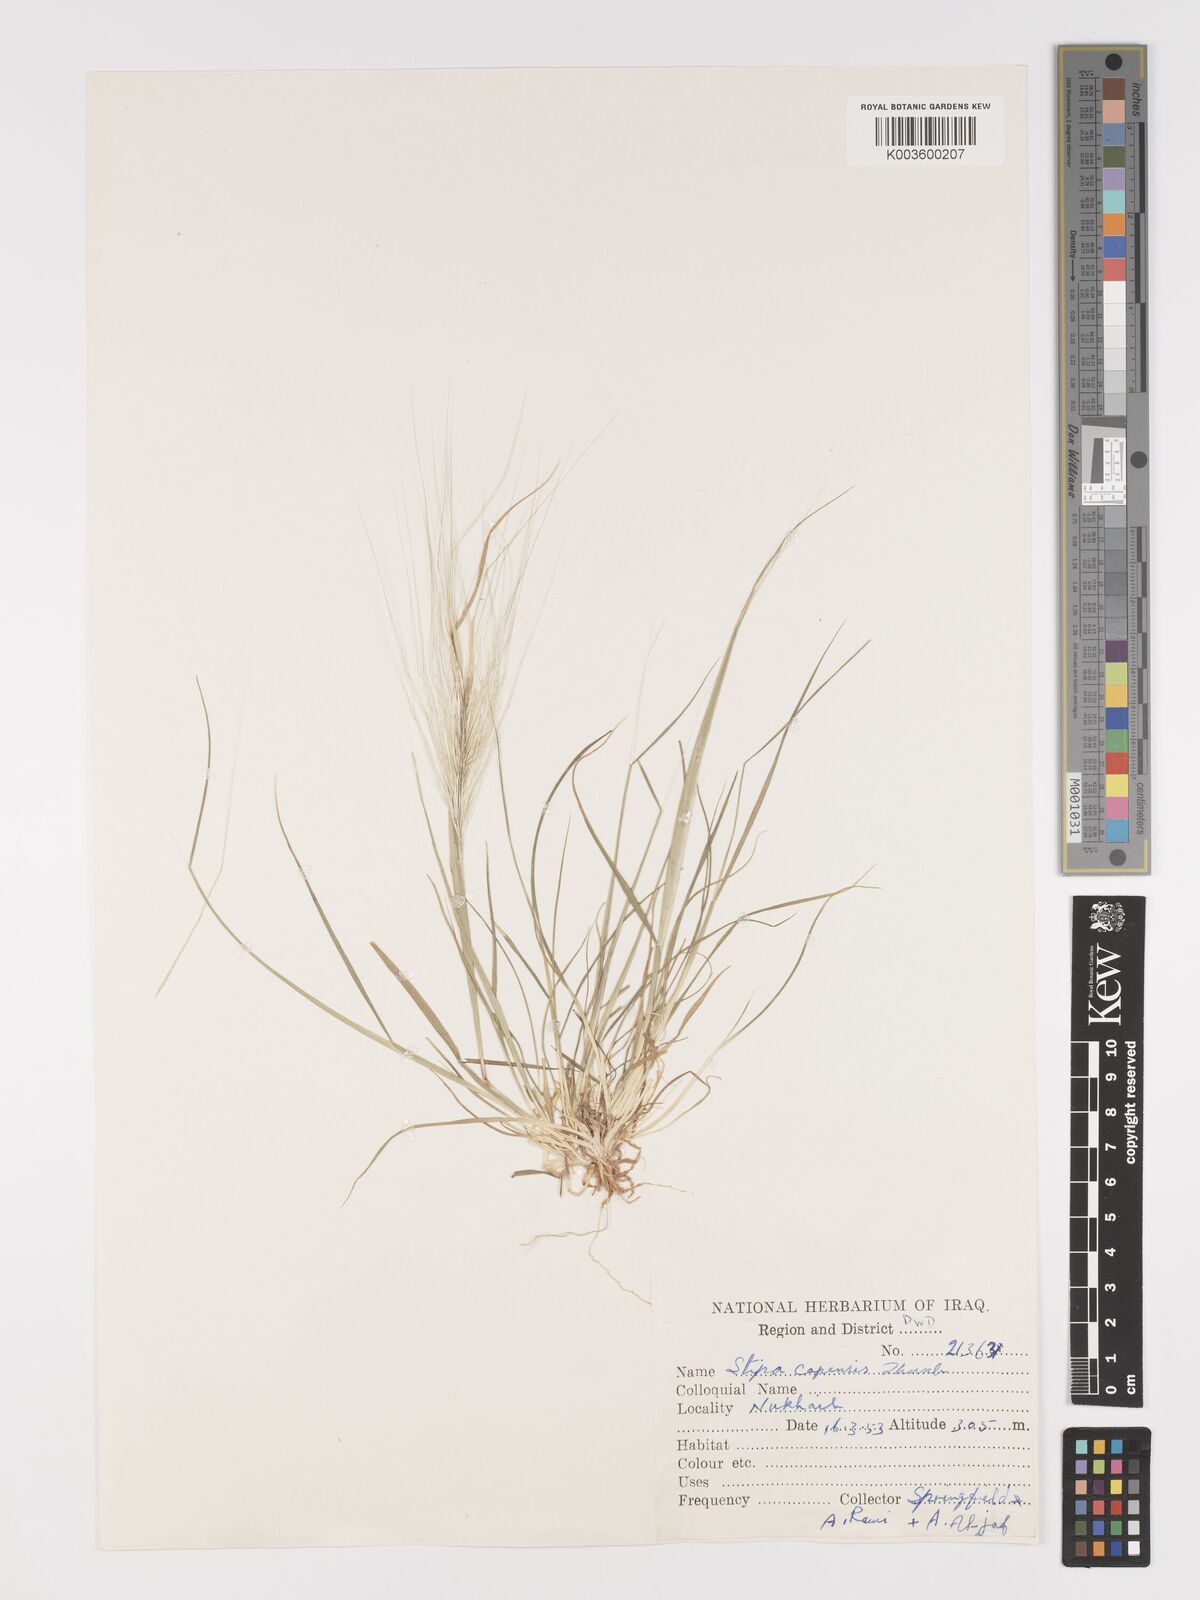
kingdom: Plantae
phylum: Tracheophyta
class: Liliopsida
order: Poales
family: Poaceae
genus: Stipellula
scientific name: Stipellula capensis
